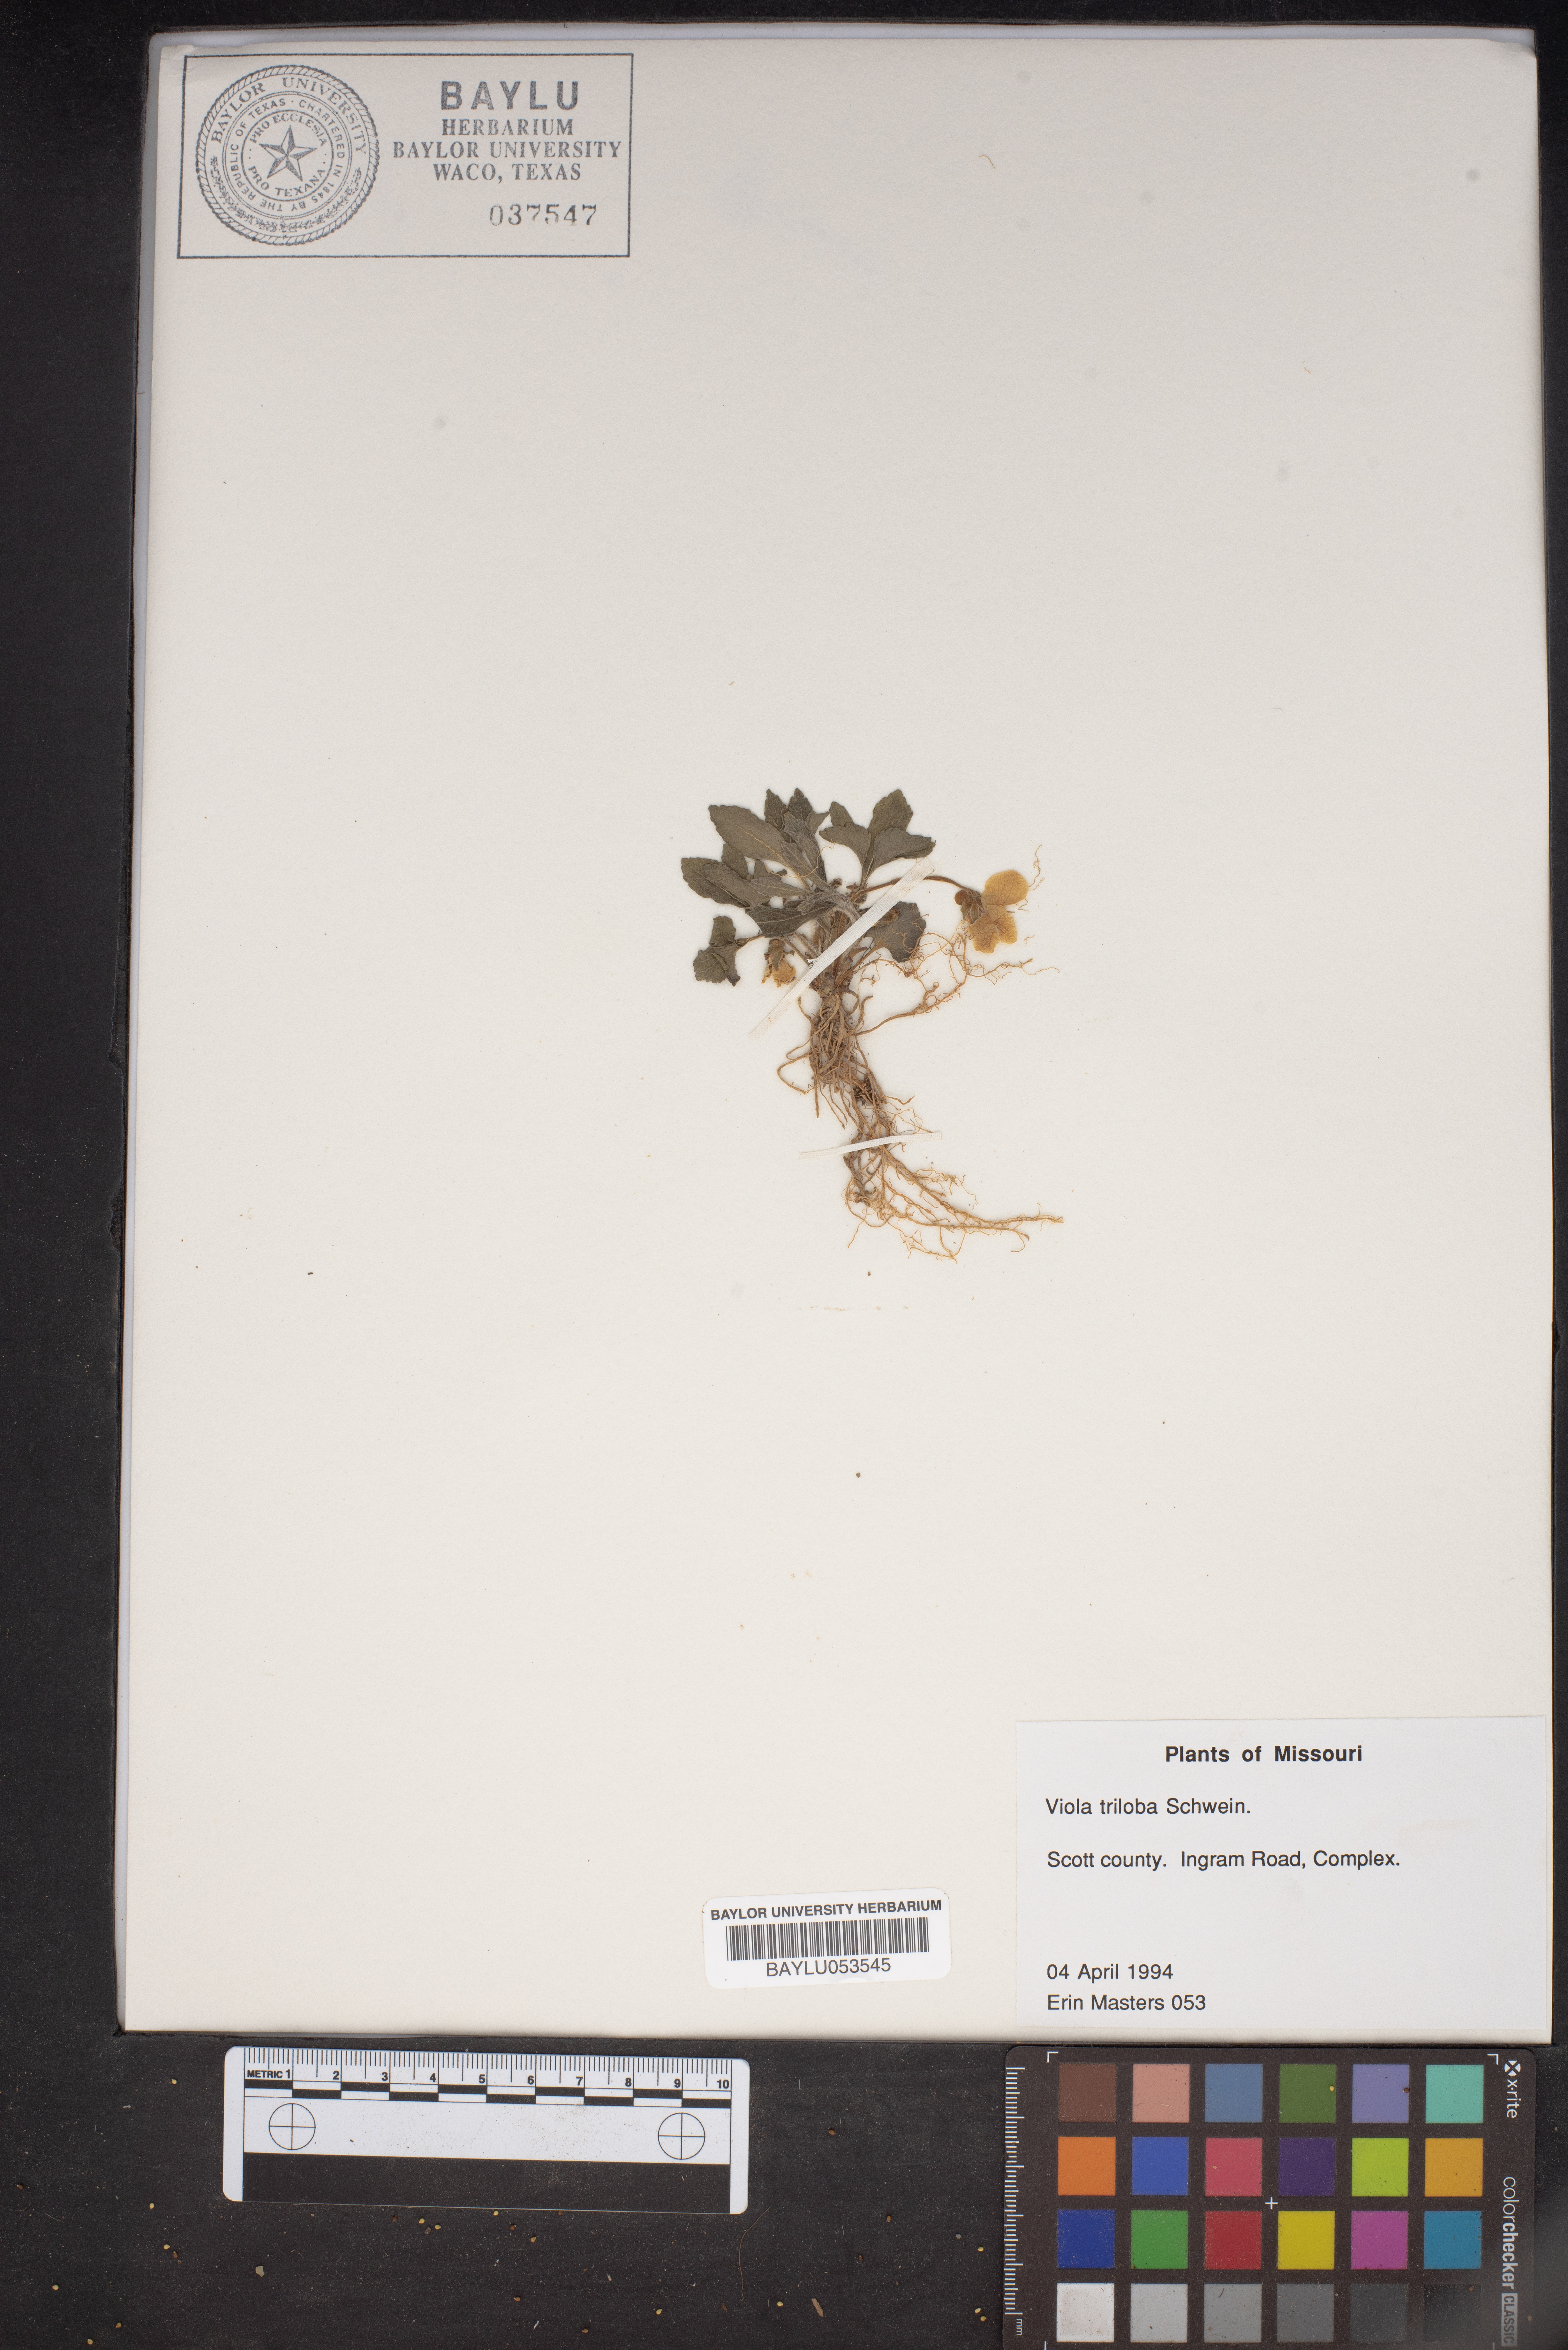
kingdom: Plantae
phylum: Tracheophyta
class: Magnoliopsida
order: Malpighiales
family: Violaceae
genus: Viola
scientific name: Viola palmata
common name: Early blue violet
